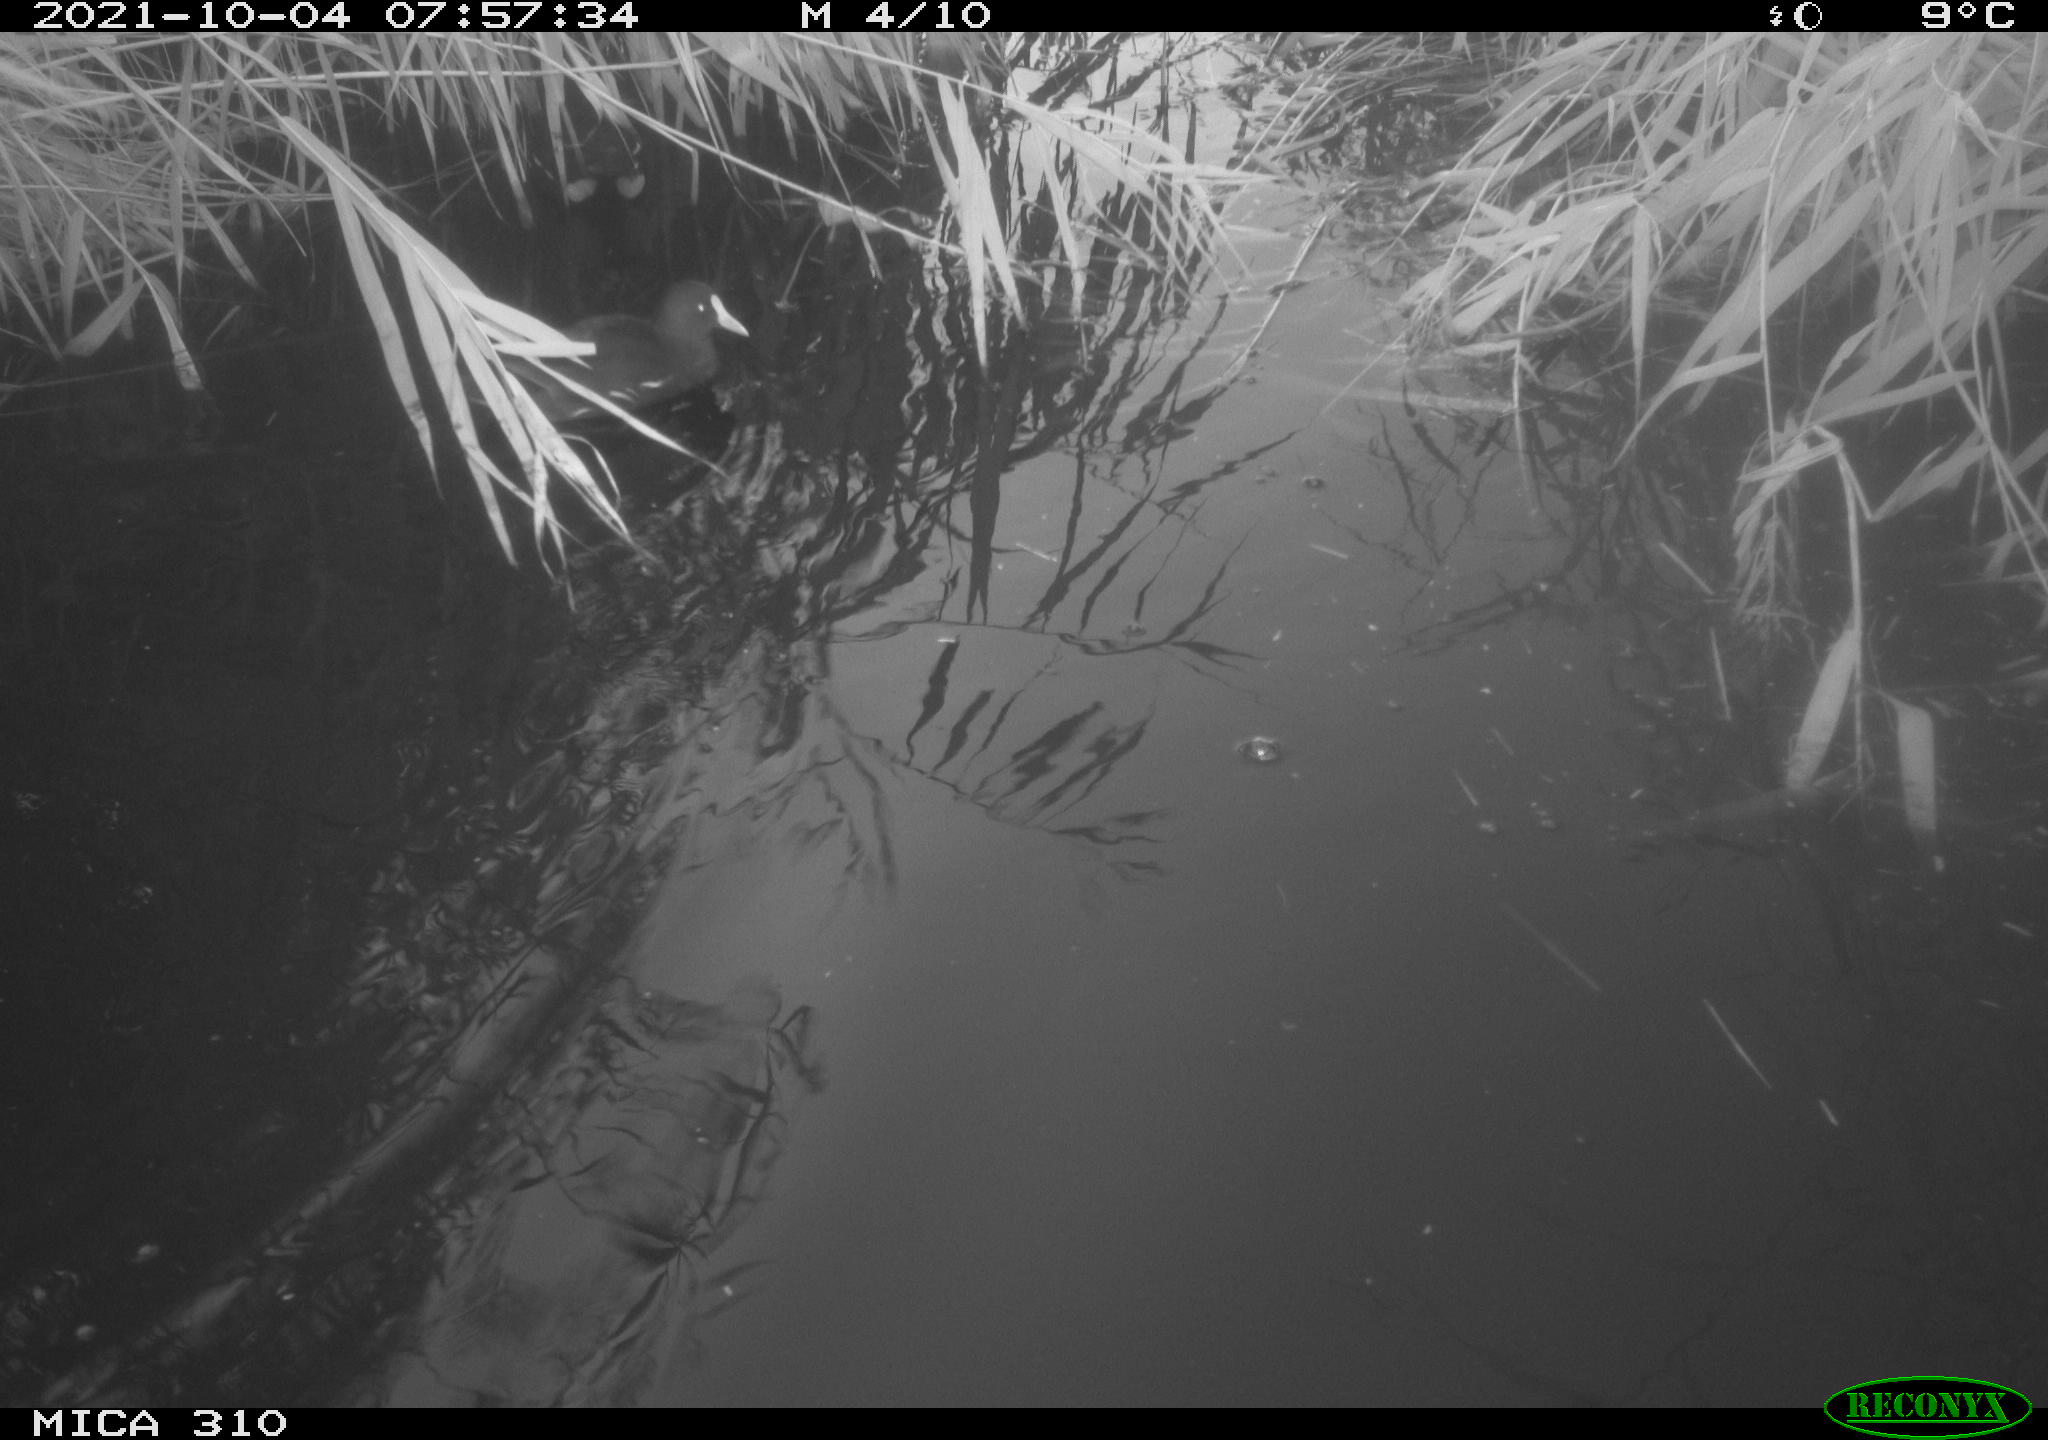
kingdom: Animalia
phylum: Chordata
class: Aves
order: Gruiformes
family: Rallidae
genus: Gallinula
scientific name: Gallinula chloropus
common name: Common moorhen
